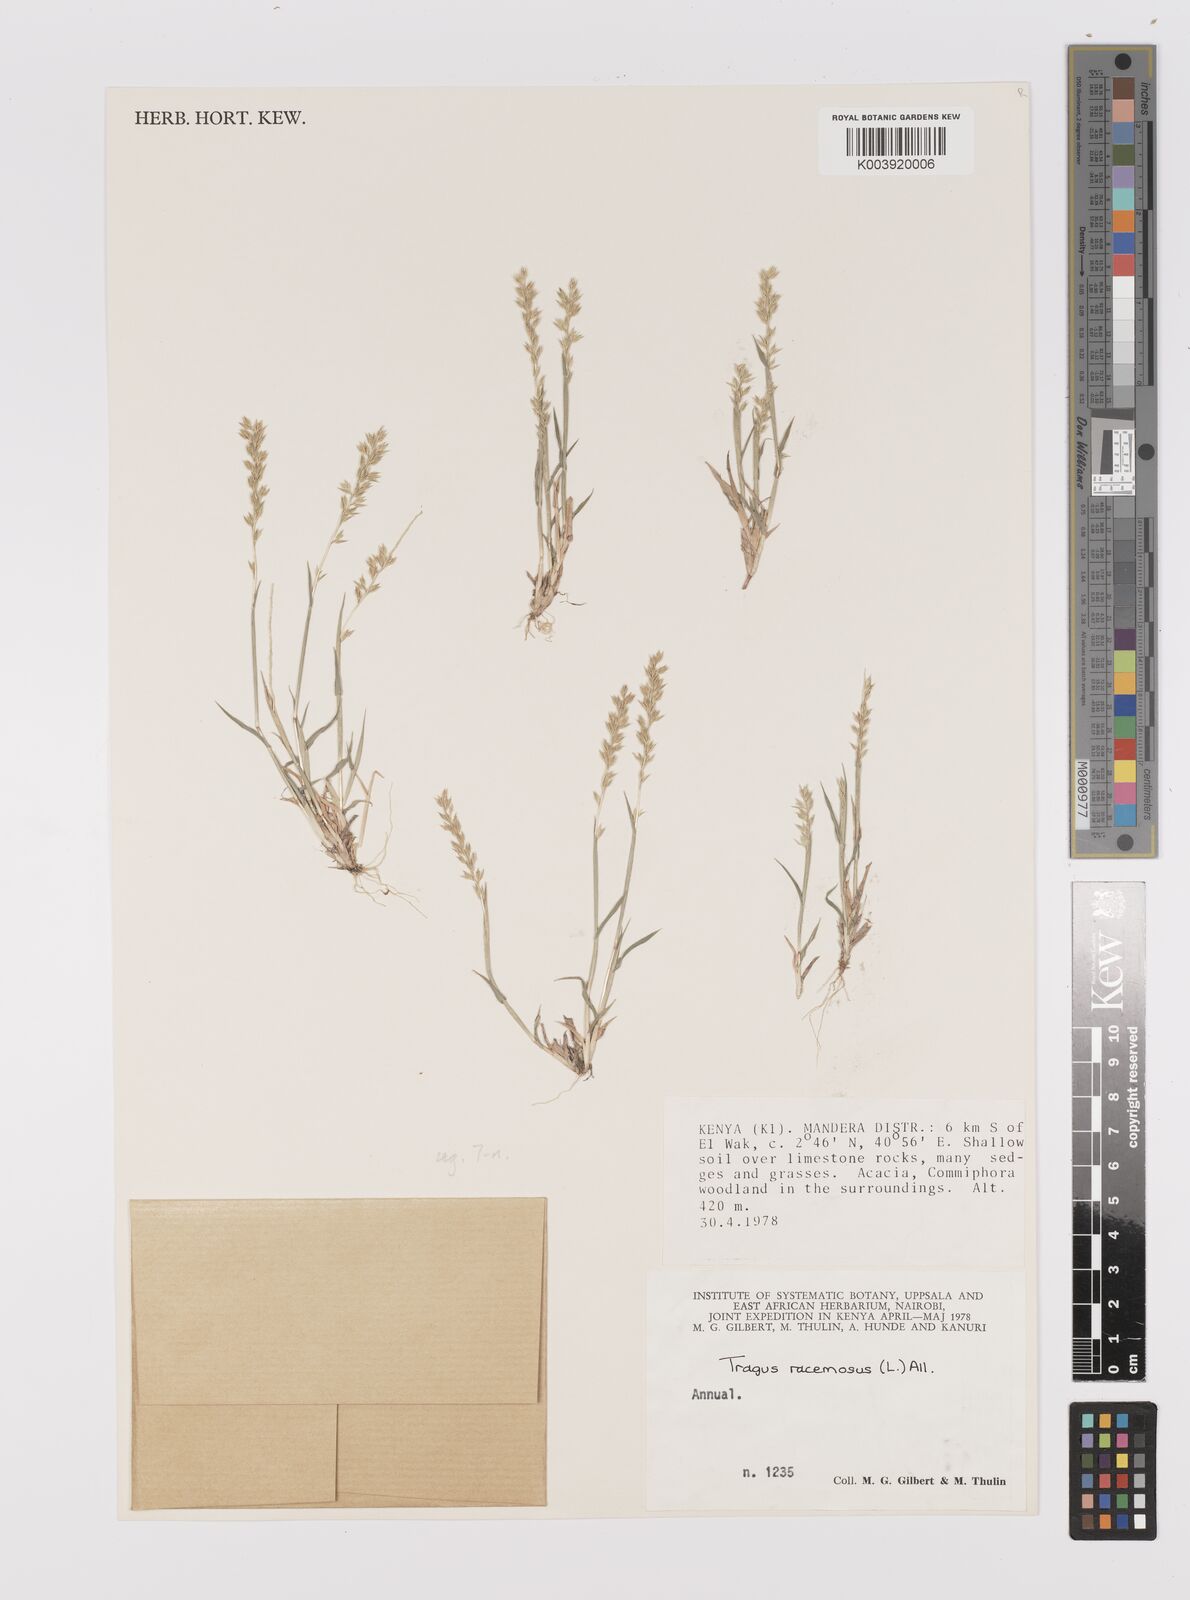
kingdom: Plantae
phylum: Tracheophyta
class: Liliopsida
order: Poales
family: Poaceae
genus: Tragus
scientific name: Tragus racemosus
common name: European bur-grass
